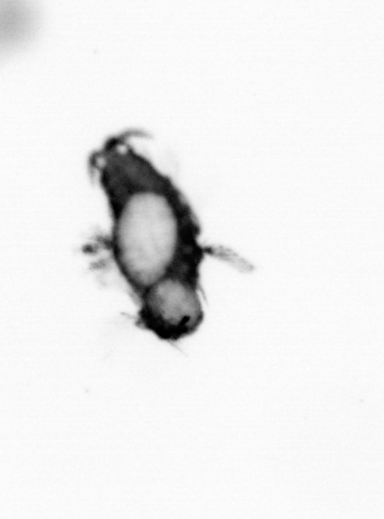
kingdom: Animalia
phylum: Annelida
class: Polychaeta
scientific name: Polychaeta
